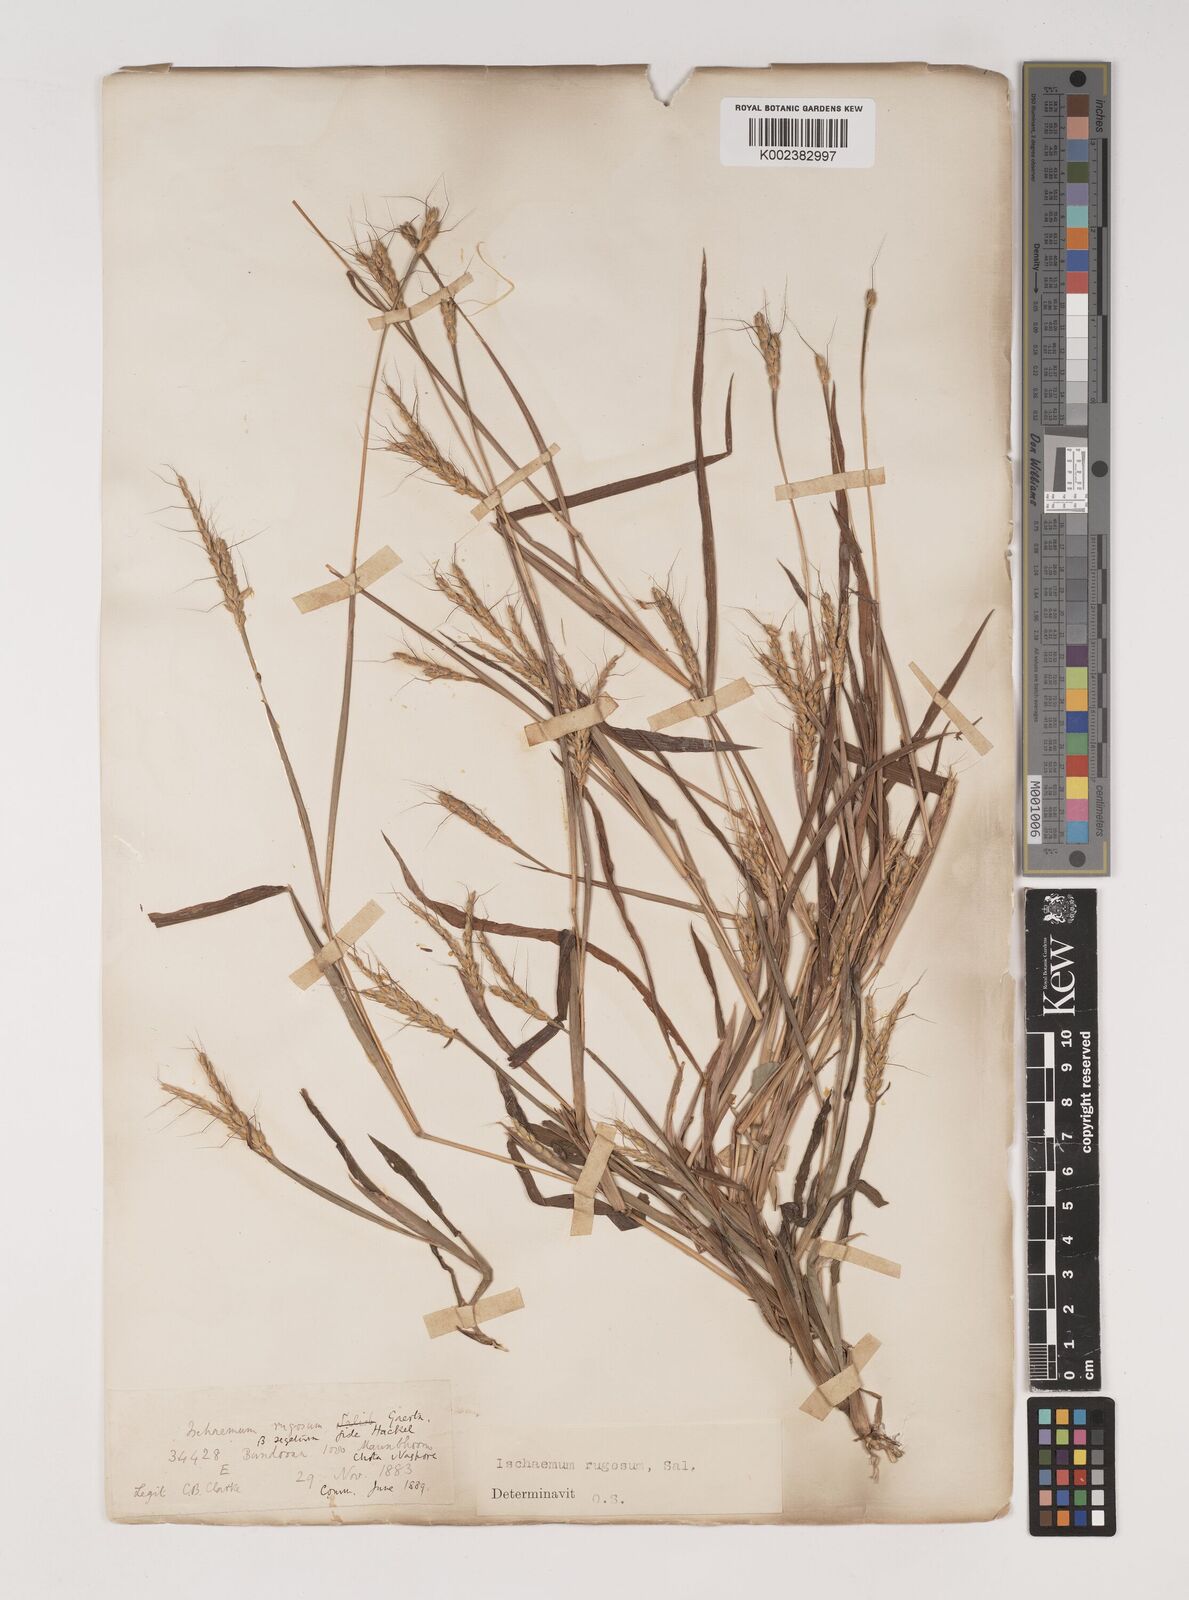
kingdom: Plantae
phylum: Tracheophyta
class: Liliopsida
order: Poales
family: Poaceae
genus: Ischaemum
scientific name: Ischaemum rugosum
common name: Saramatta grass
